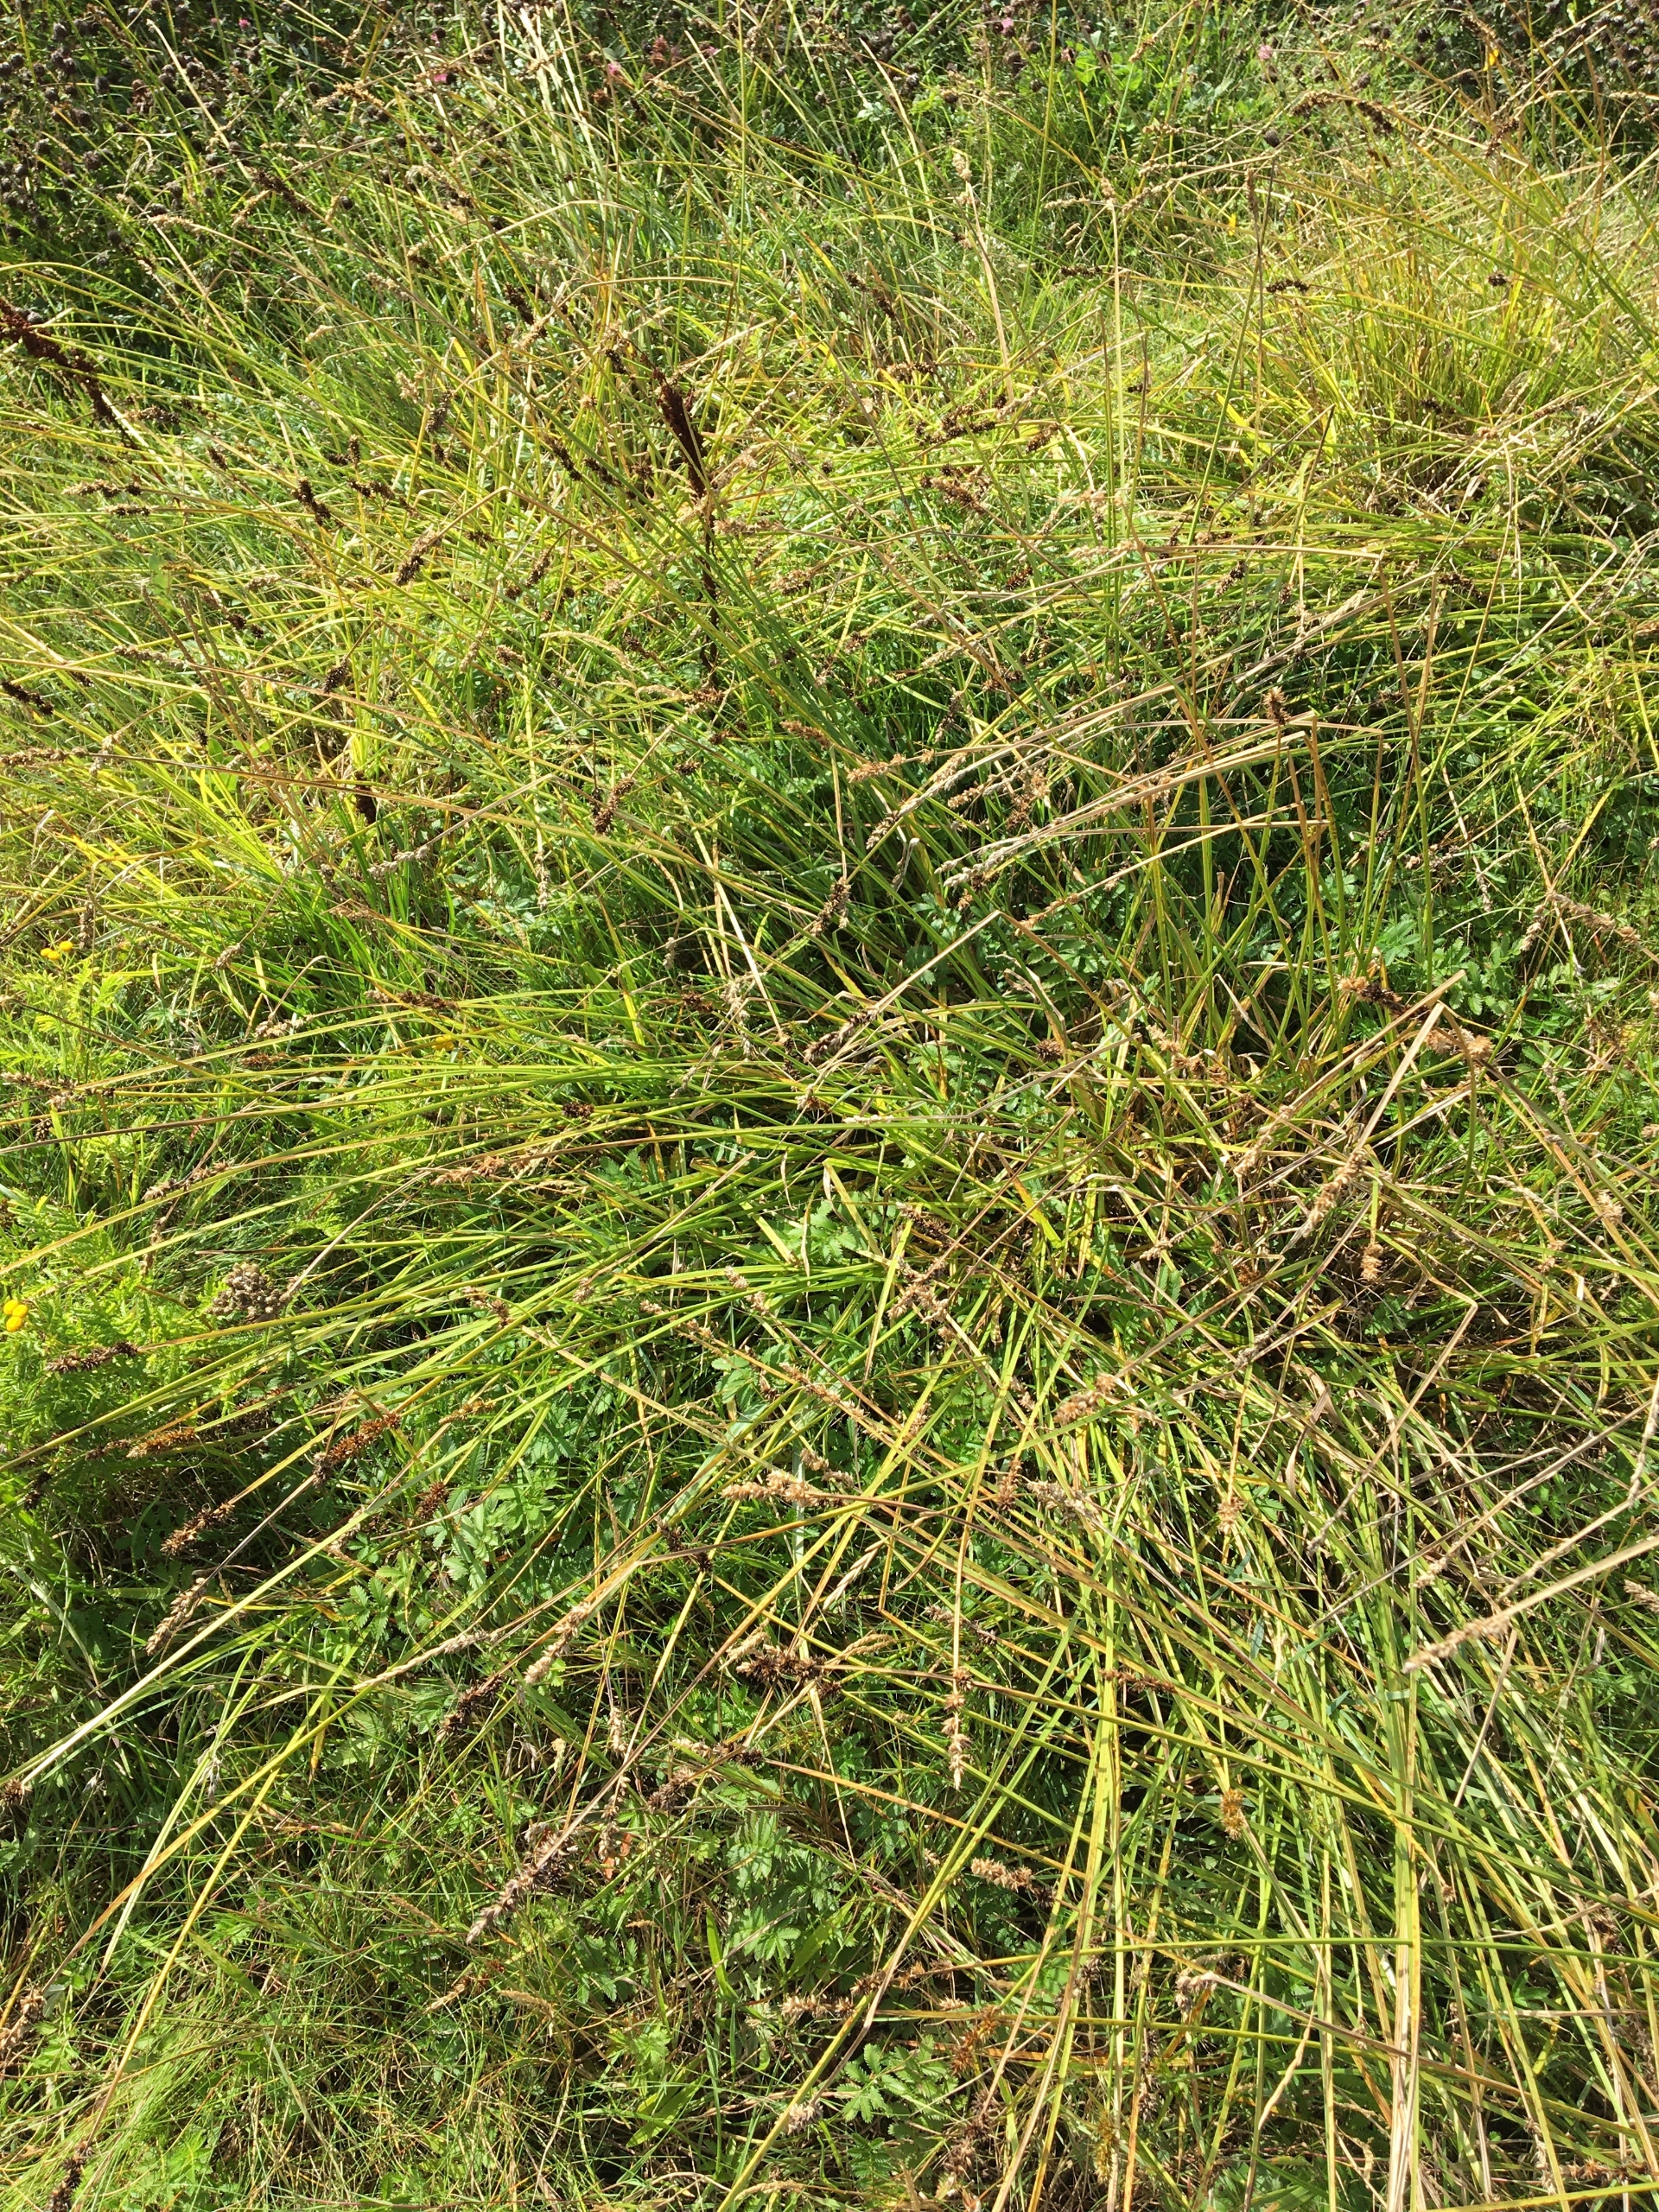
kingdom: Plantae
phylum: Tracheophyta
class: Liliopsida
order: Poales
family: Cyperaceae
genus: Carex
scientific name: Carex otrubae
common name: Sylt-star
